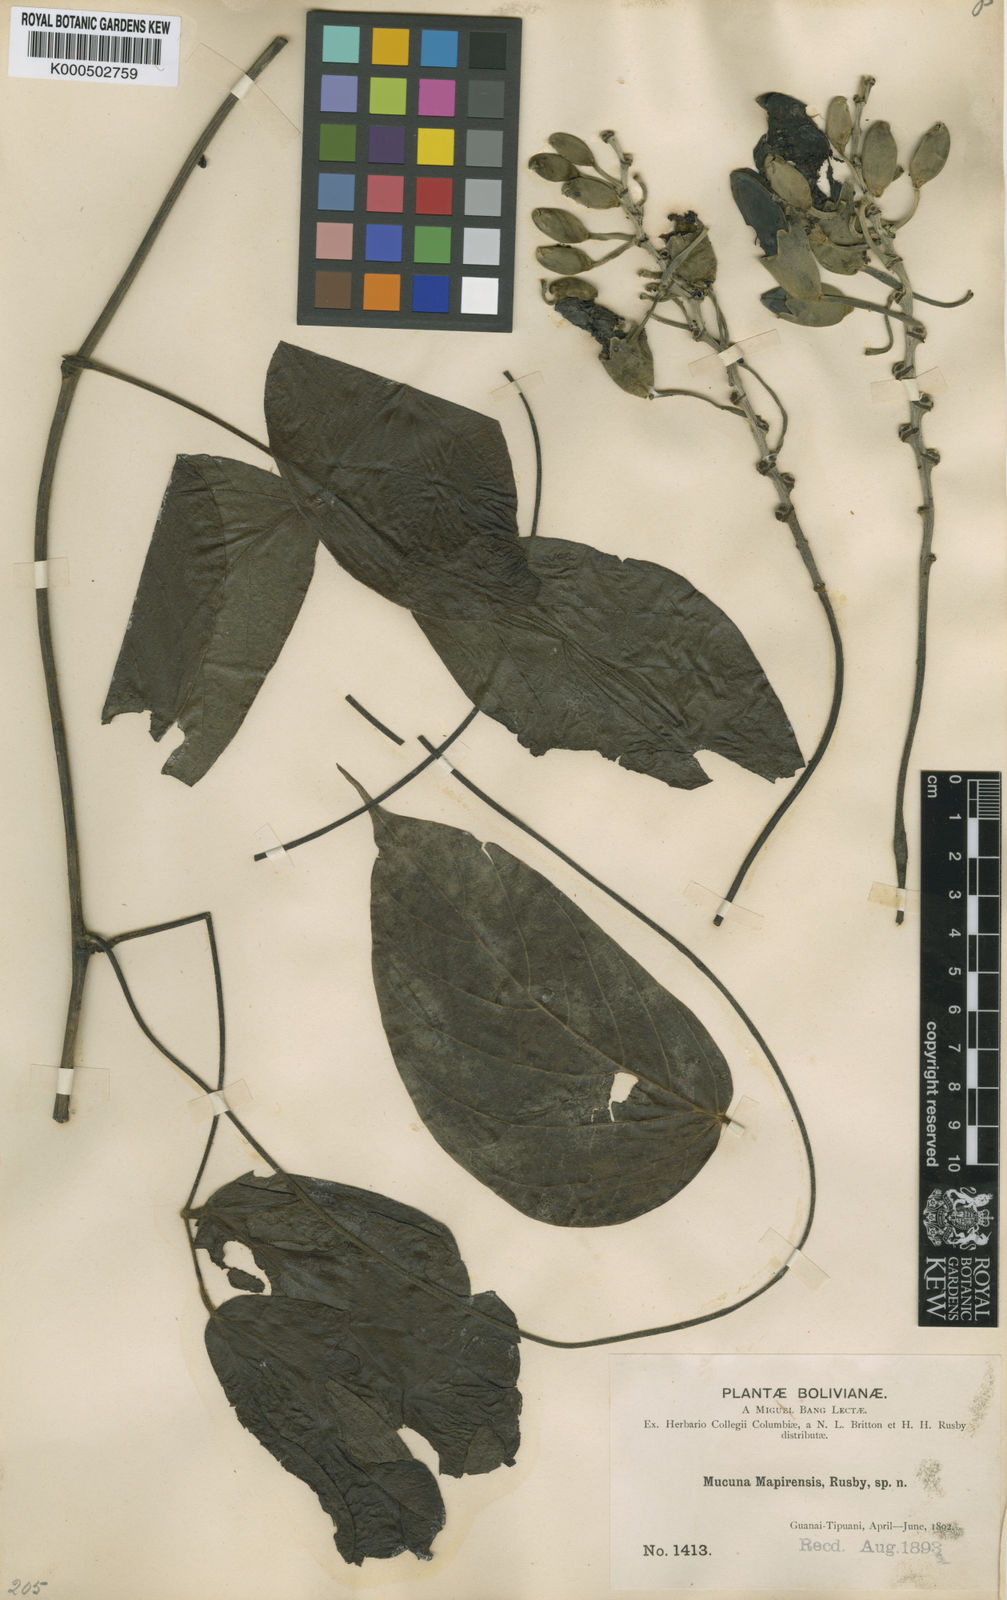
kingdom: Plantae
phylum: Tracheophyta
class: Magnoliopsida
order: Fabales
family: Fabaceae
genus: Mucuna
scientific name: Mucuna mitis
